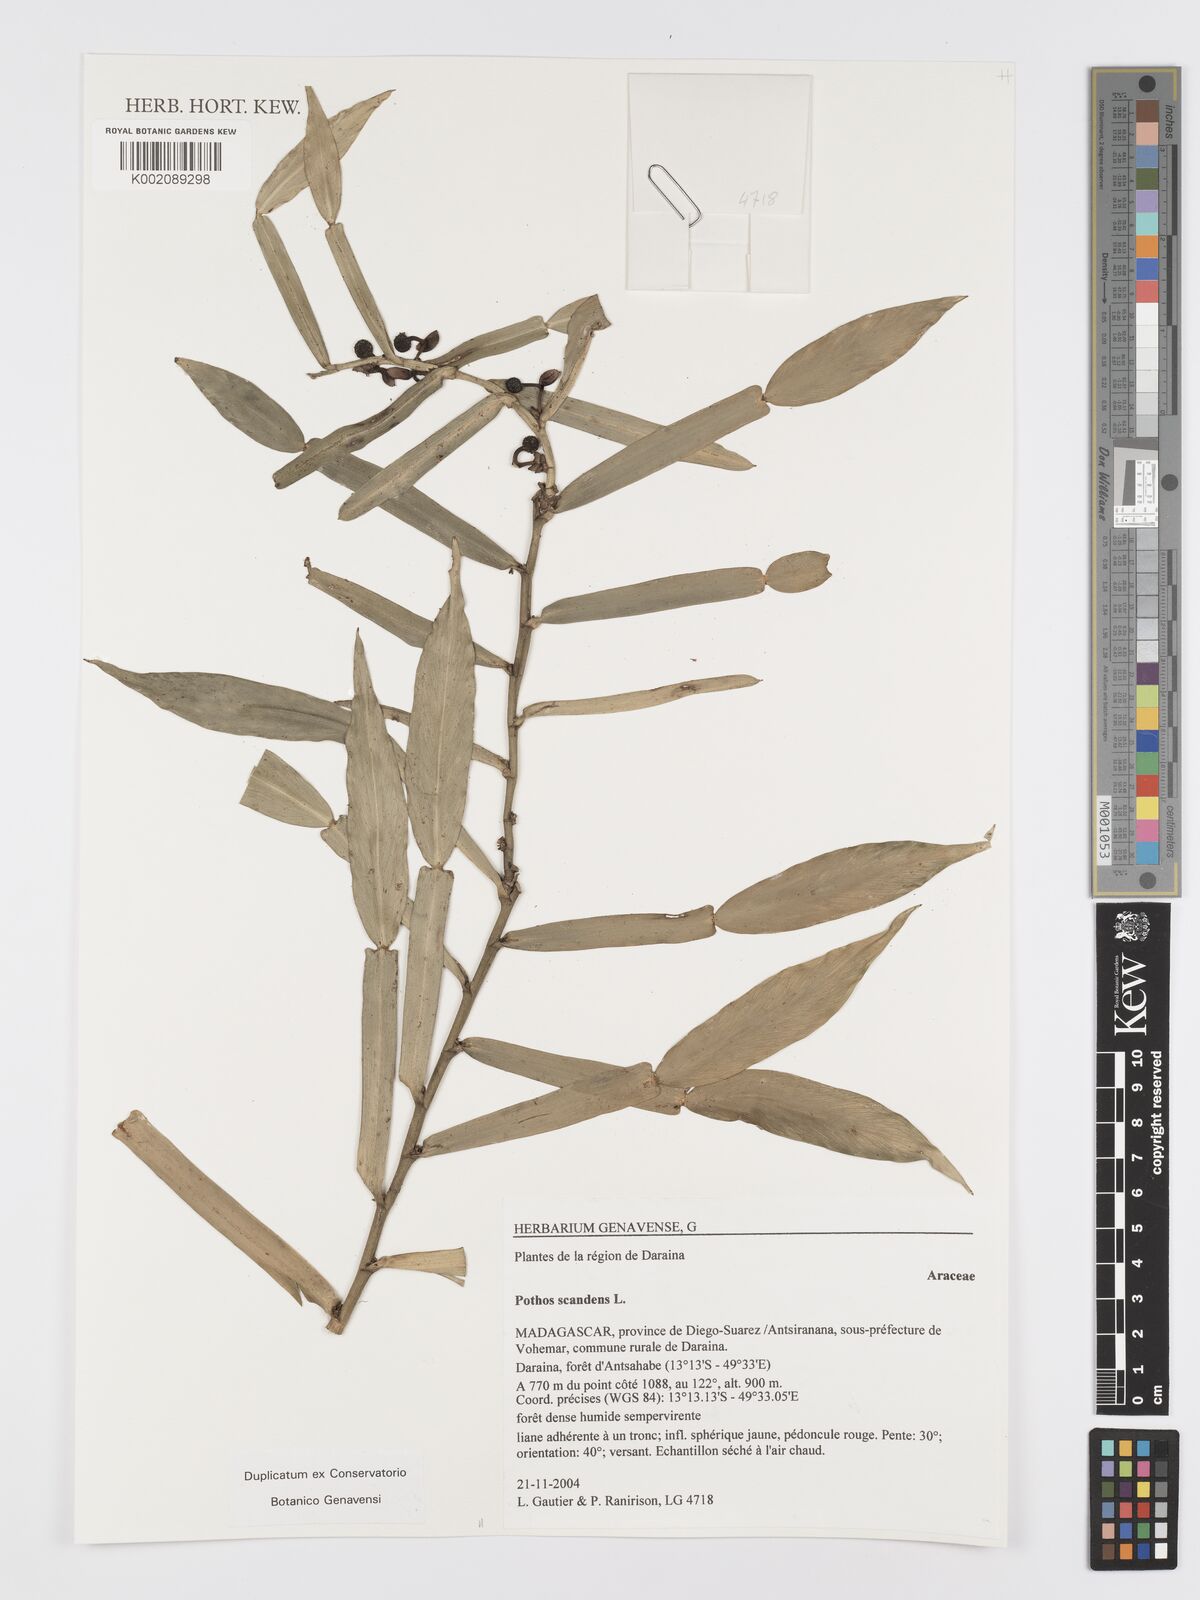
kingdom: Plantae
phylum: Tracheophyta
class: Liliopsida
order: Alismatales
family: Araceae
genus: Pothos
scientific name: Pothos scandens
